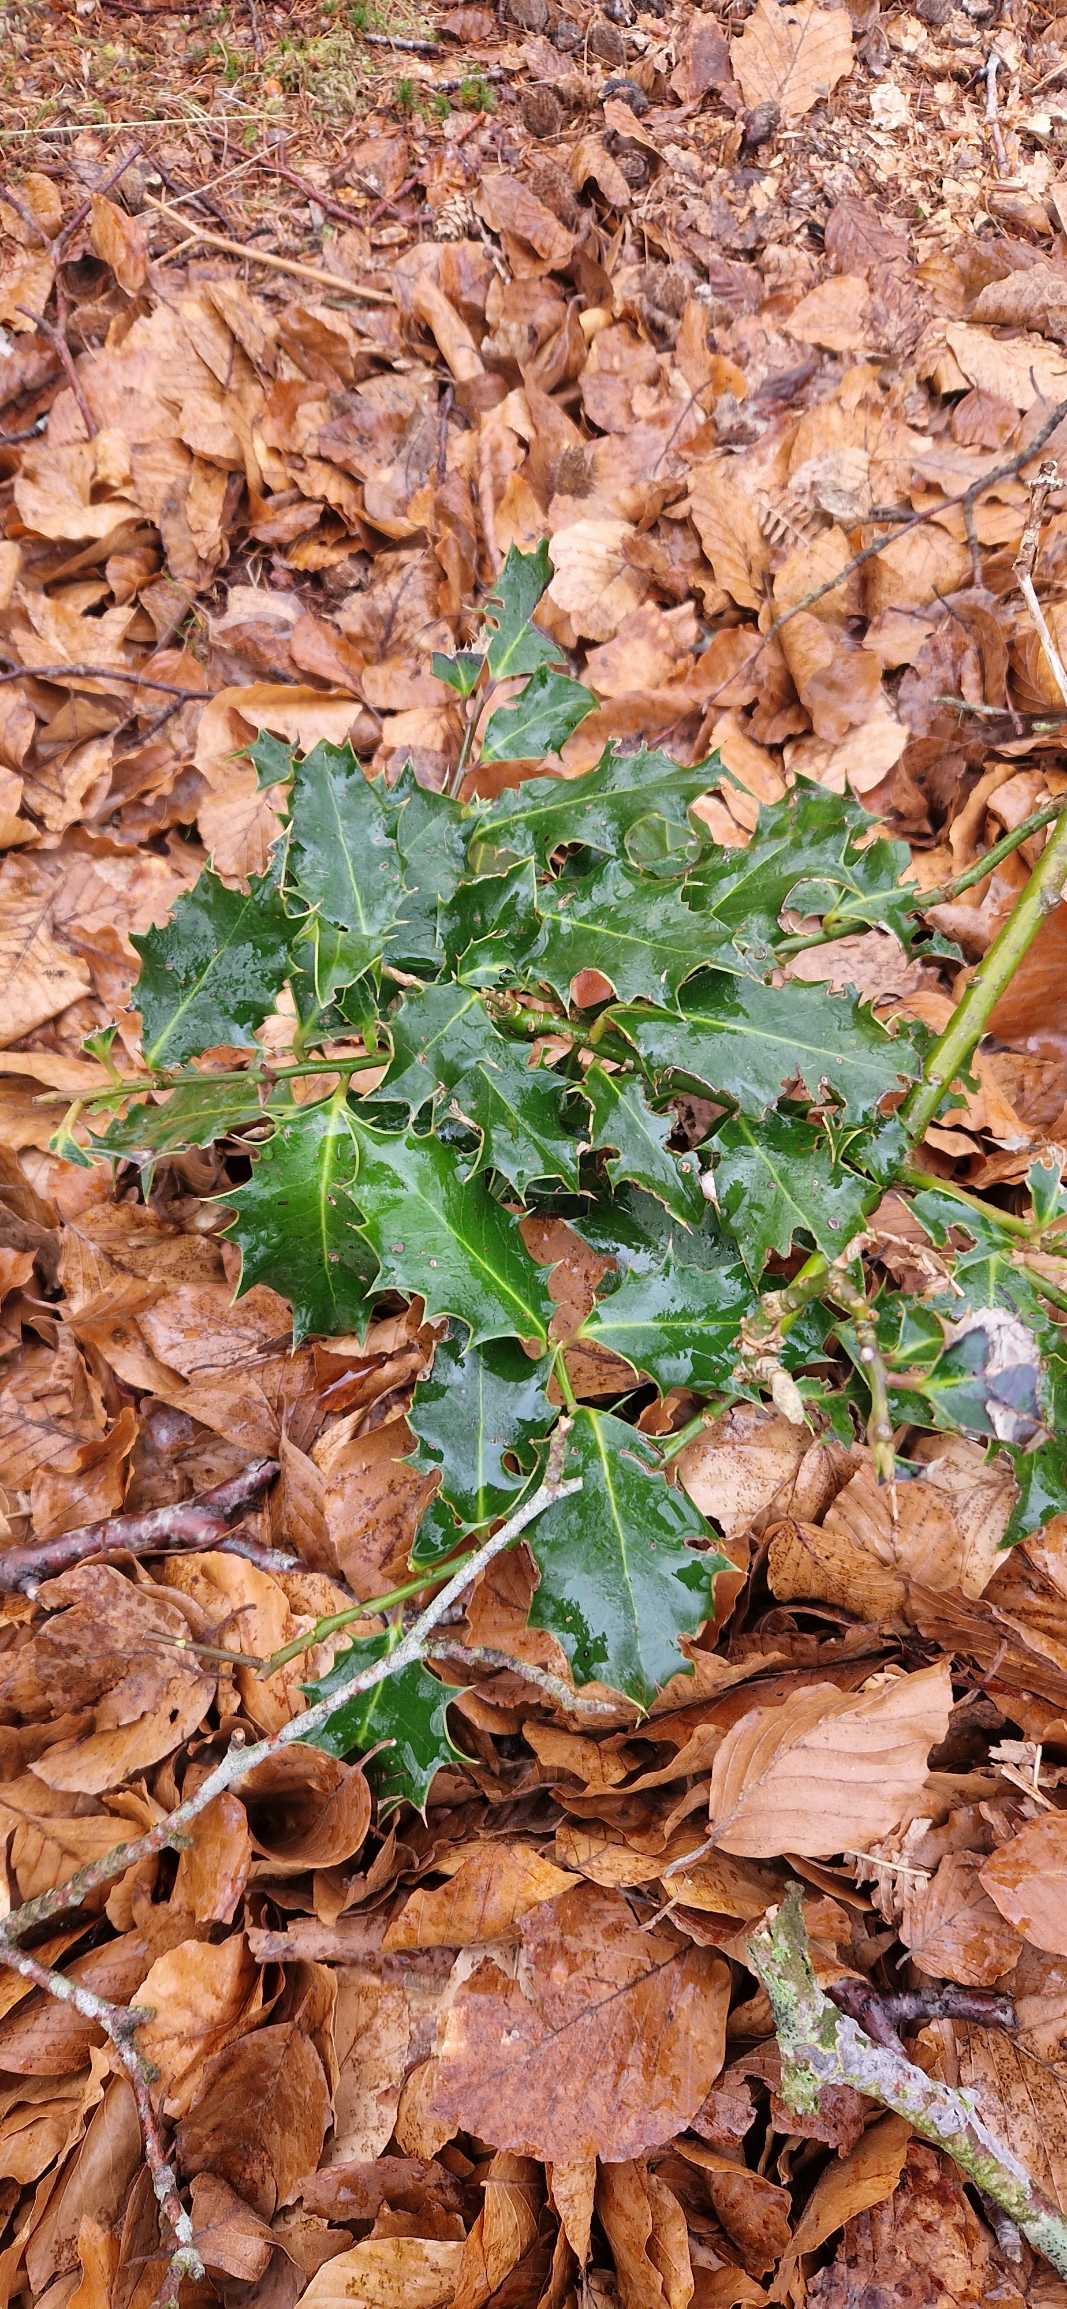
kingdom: Plantae
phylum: Tracheophyta
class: Magnoliopsida
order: Aquifoliales
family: Aquifoliaceae
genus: Ilex
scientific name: Ilex aquifolium
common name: Kristtorn
